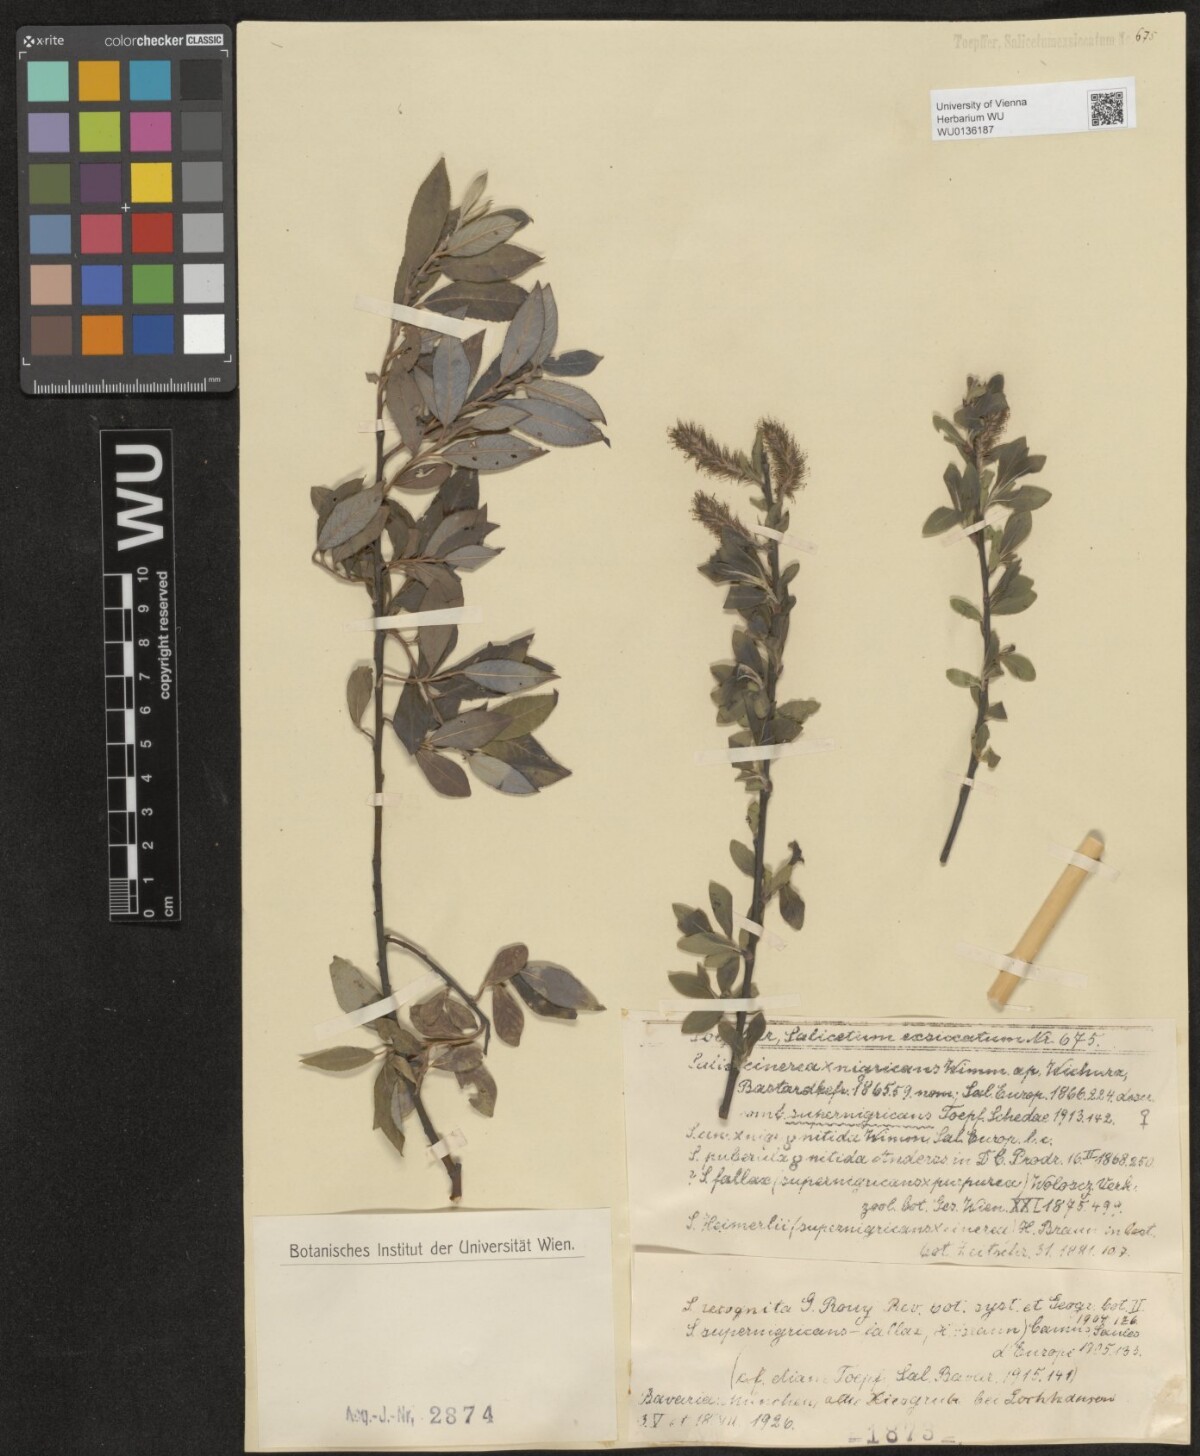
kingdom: Plantae
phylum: Tracheophyta
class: Magnoliopsida
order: Malpighiales
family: Salicaceae
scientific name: Salicaceae
